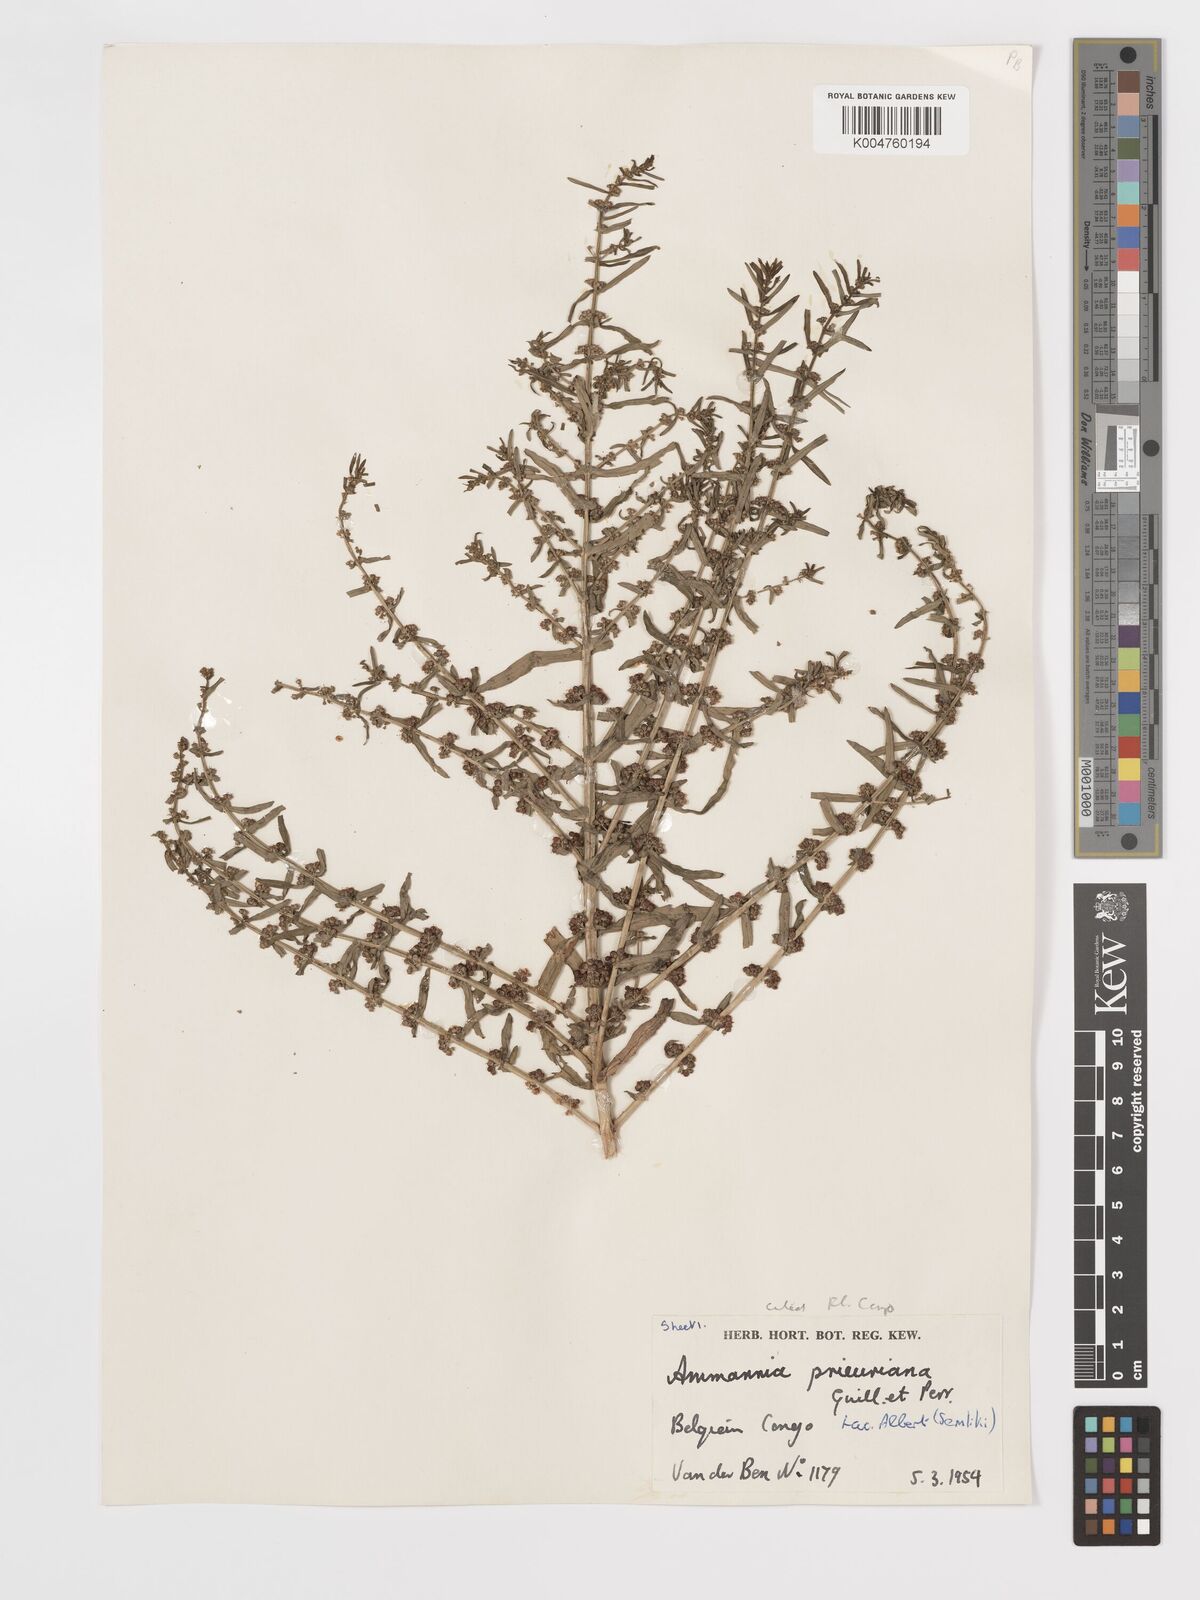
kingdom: Plantae
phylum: Tracheophyta
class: Magnoliopsida
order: Myrtales
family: Lythraceae
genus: Ammannia
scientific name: Ammannia prieuriana
